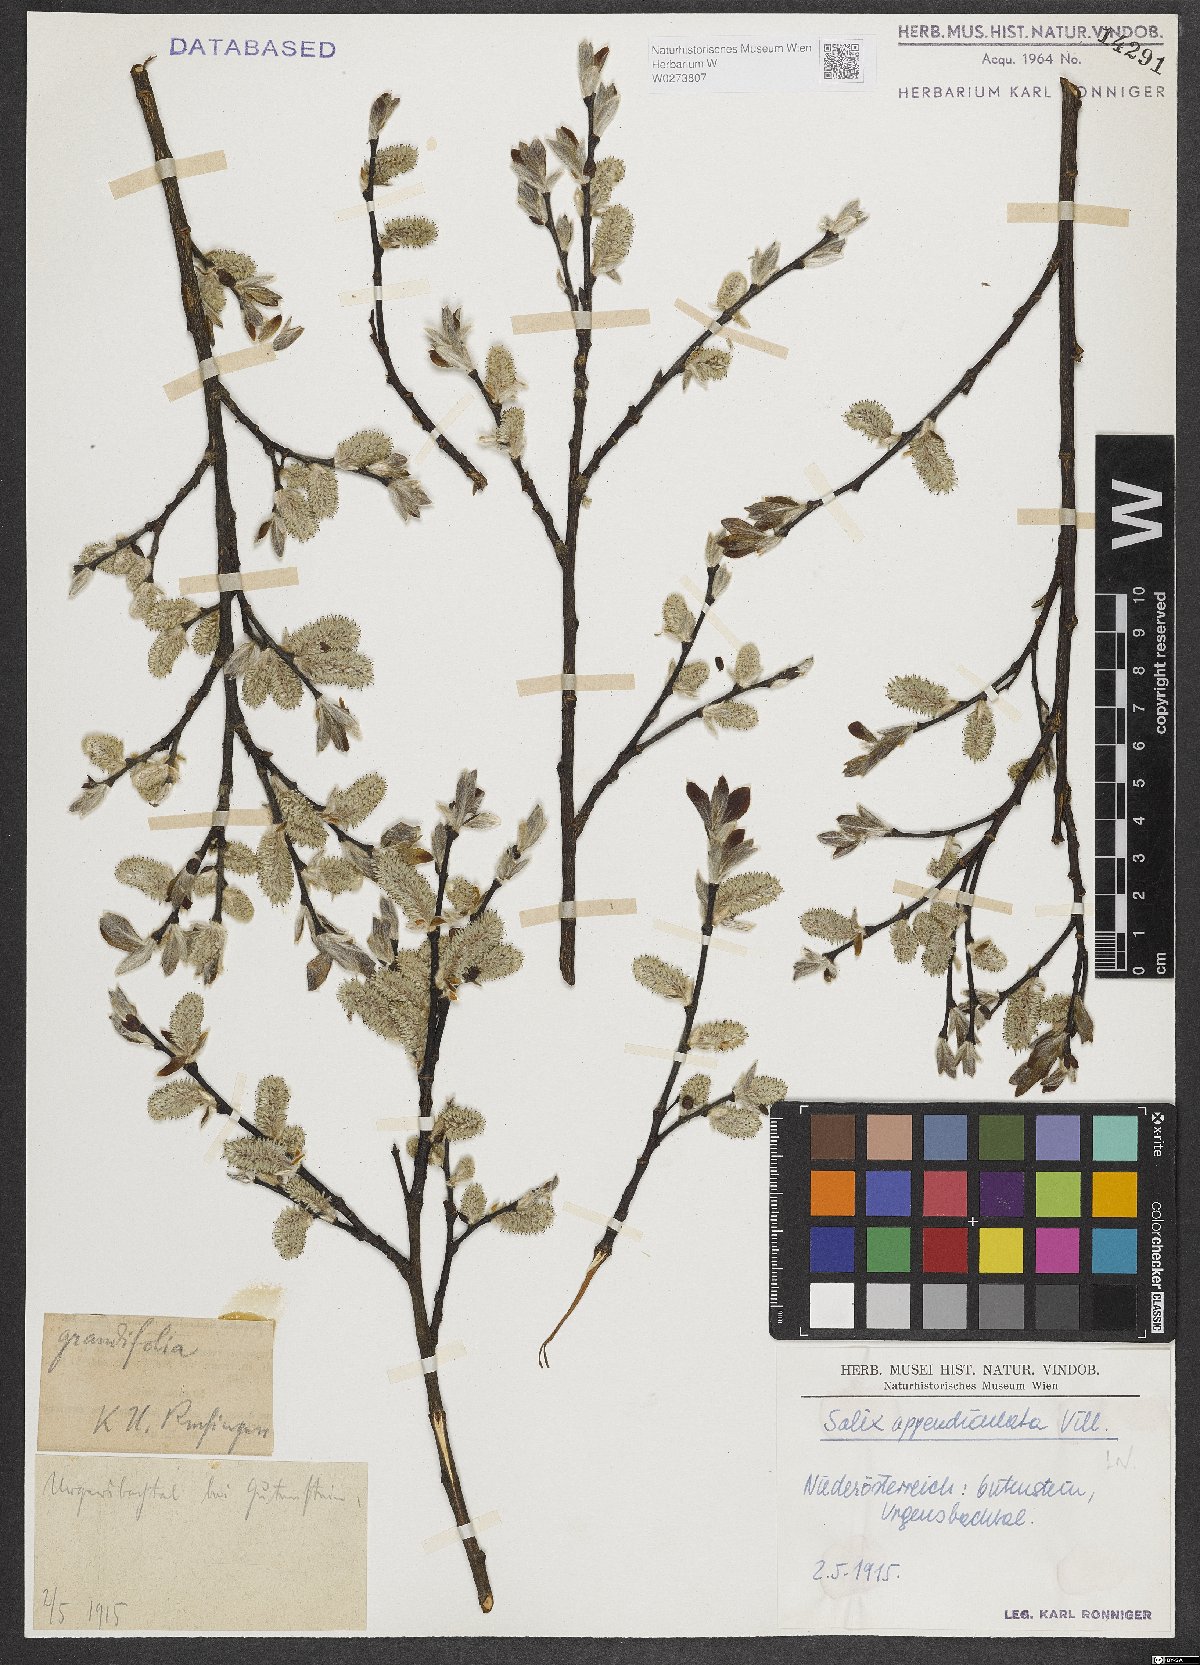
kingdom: Plantae
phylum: Tracheophyta
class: Magnoliopsida
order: Malpighiales
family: Salicaceae
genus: Salix
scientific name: Salix appendiculata
